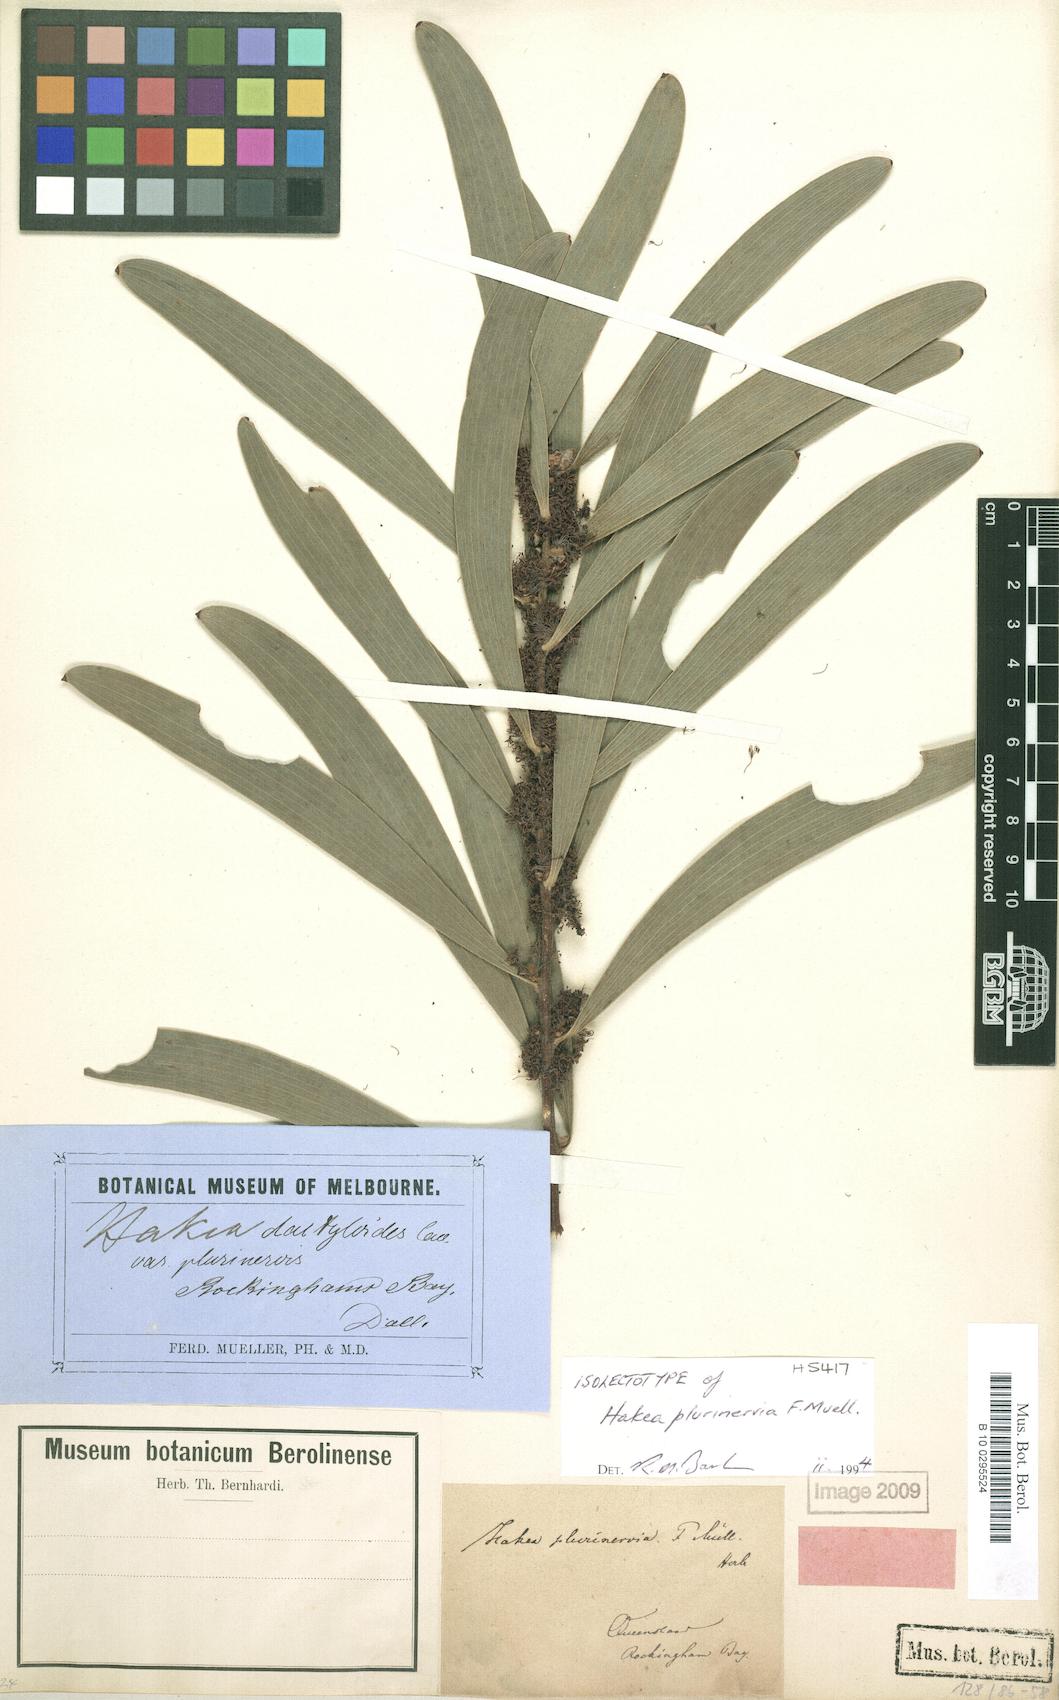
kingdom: Plantae
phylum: Tracheophyta
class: Magnoliopsida
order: Proteales
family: Proteaceae
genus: Hakea
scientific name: Hakea benthamii
